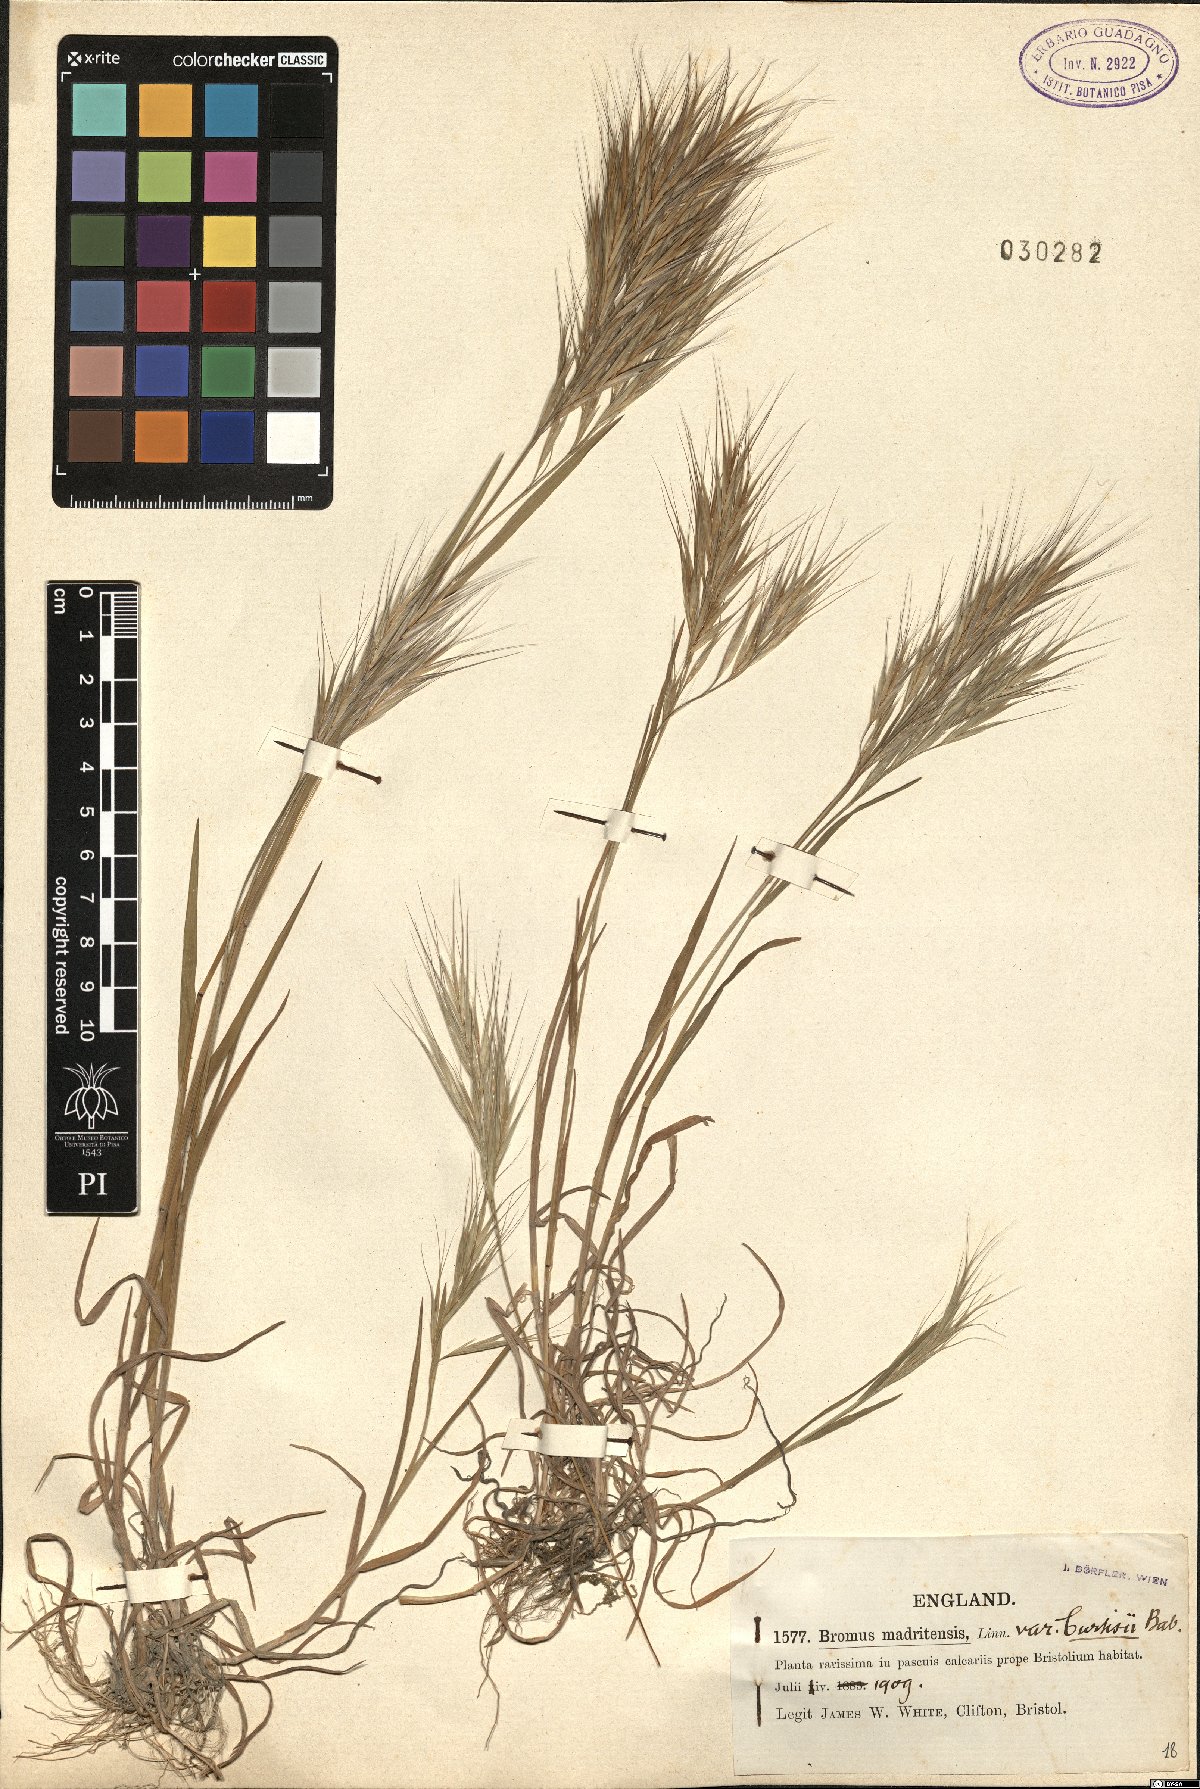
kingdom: Plantae
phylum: Tracheophyta
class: Liliopsida
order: Poales
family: Poaceae
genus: Bromus
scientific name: Bromus madritensis
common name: Compact brome
